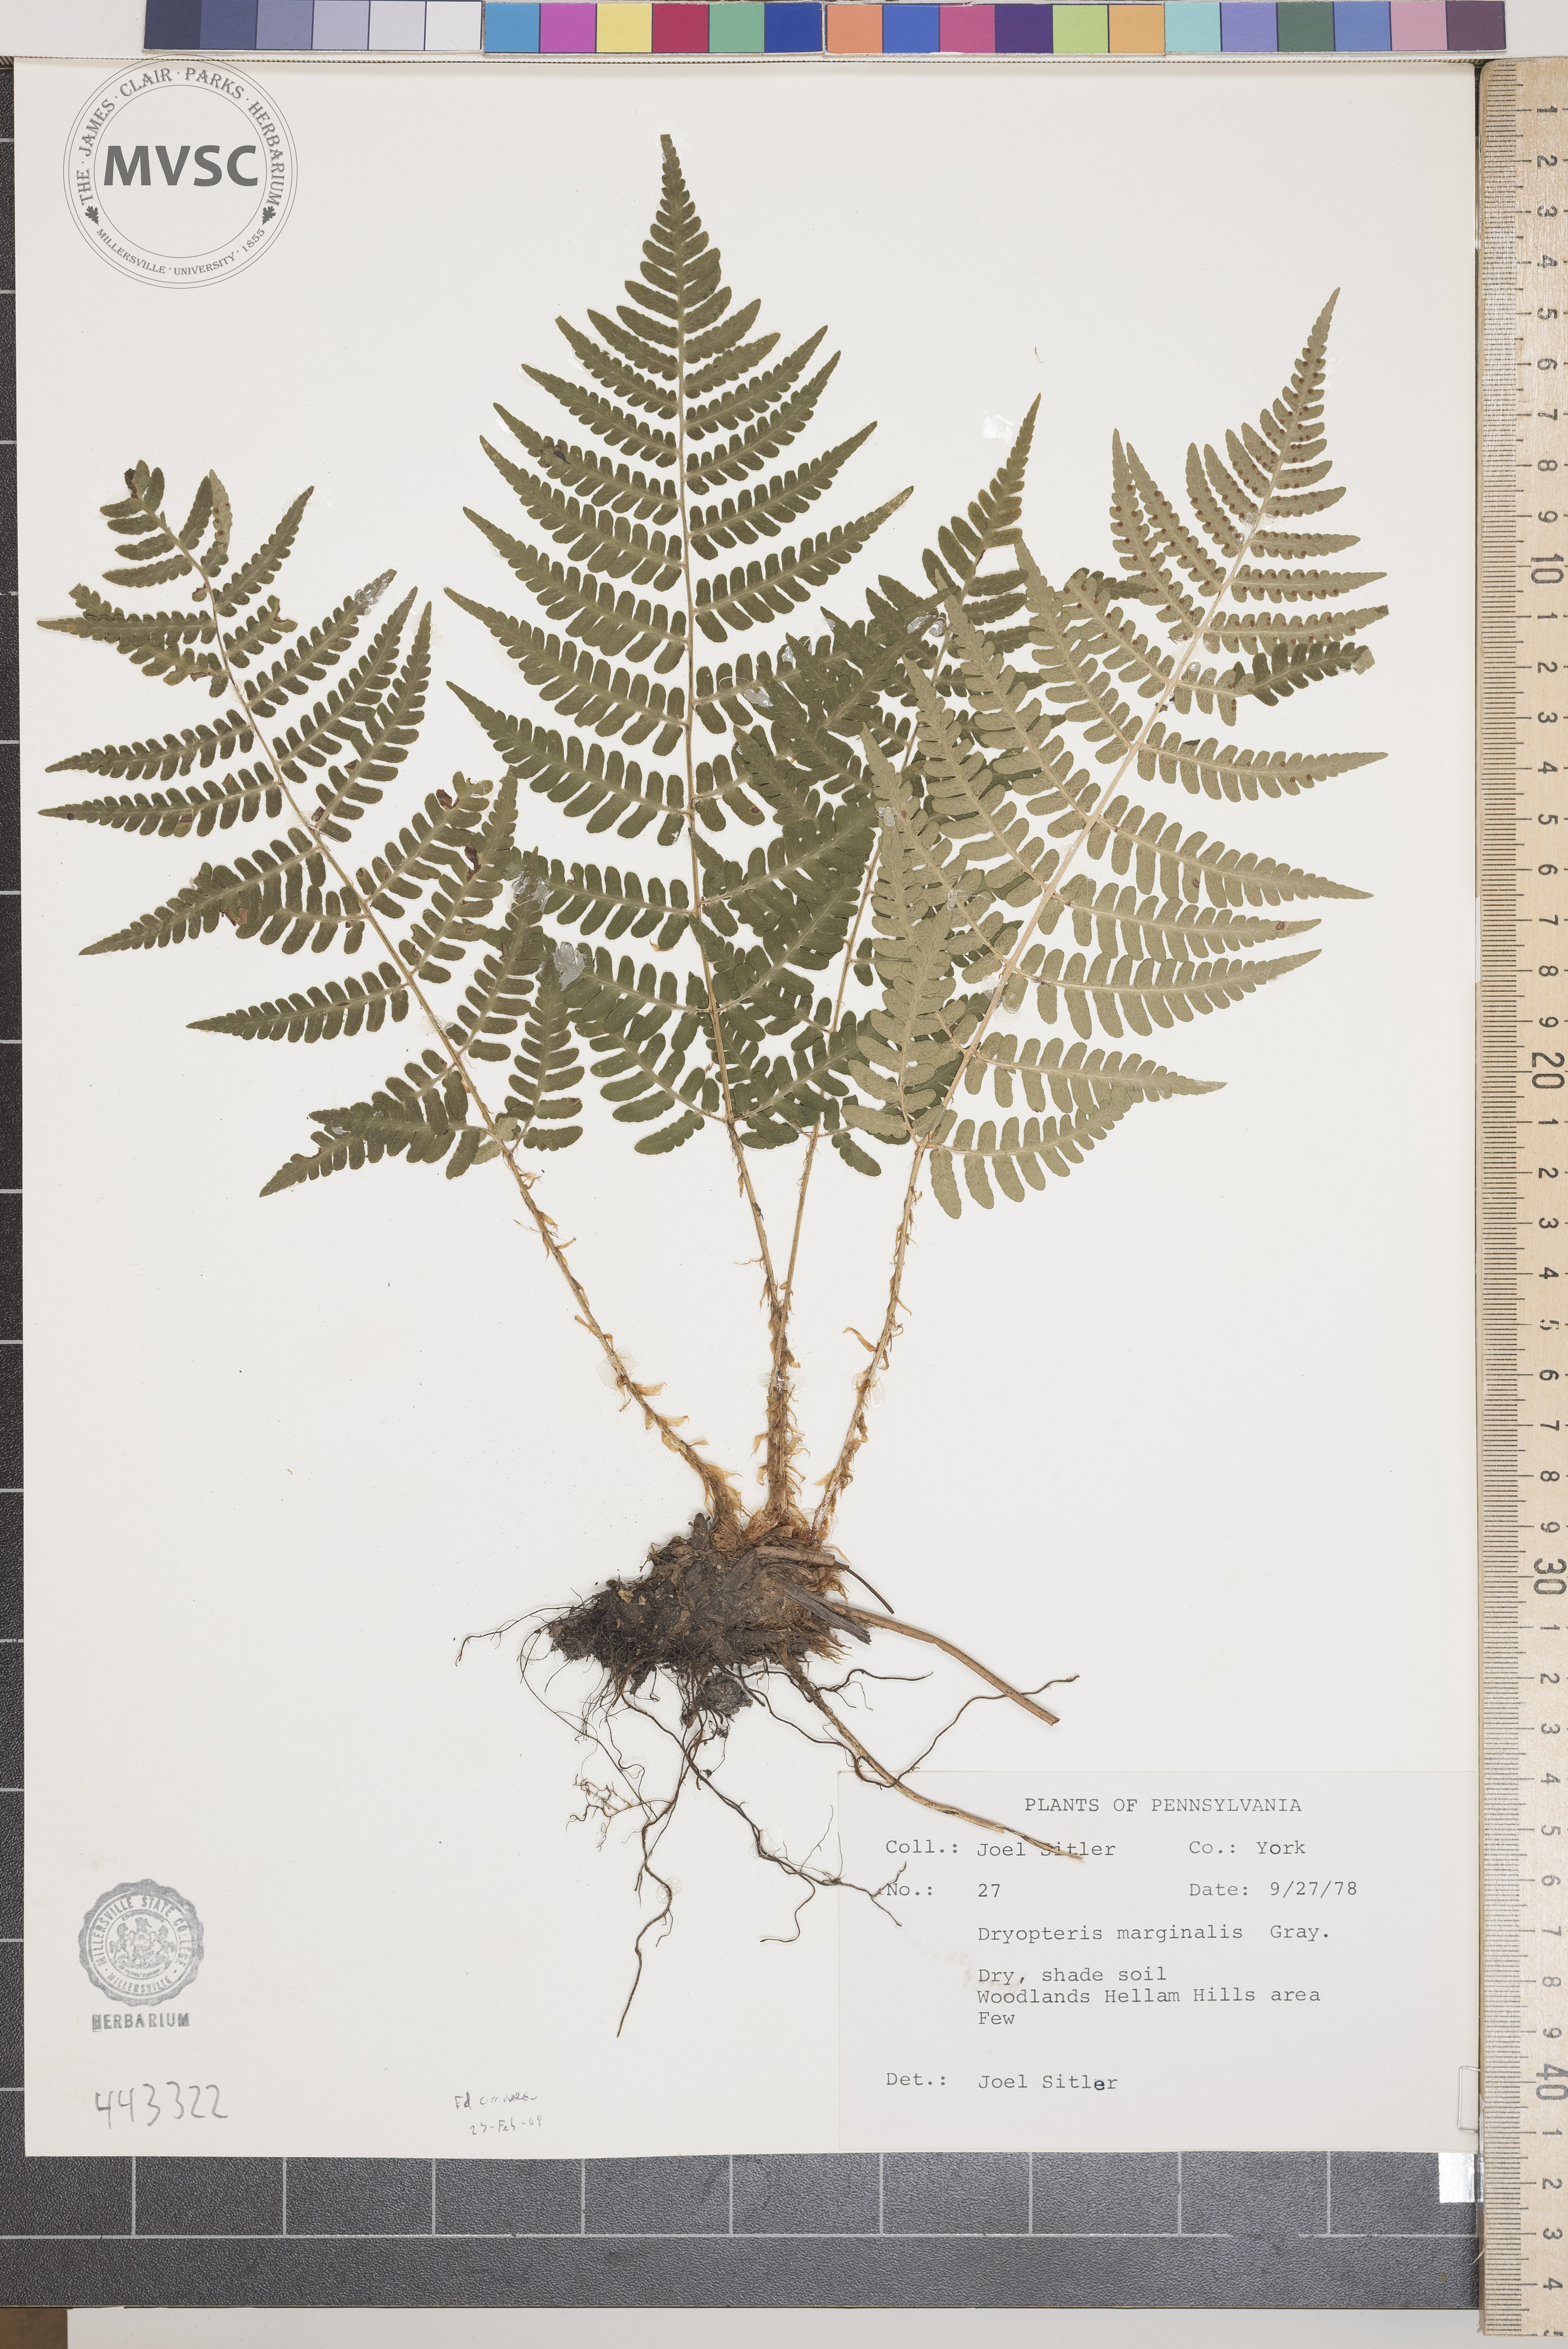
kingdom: Plantae
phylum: Tracheophyta
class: Polypodiopsida
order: Polypodiales
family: Dryopteridaceae
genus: Dryopteris
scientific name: Dryopteris marginalis
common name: Marginal wood fern
